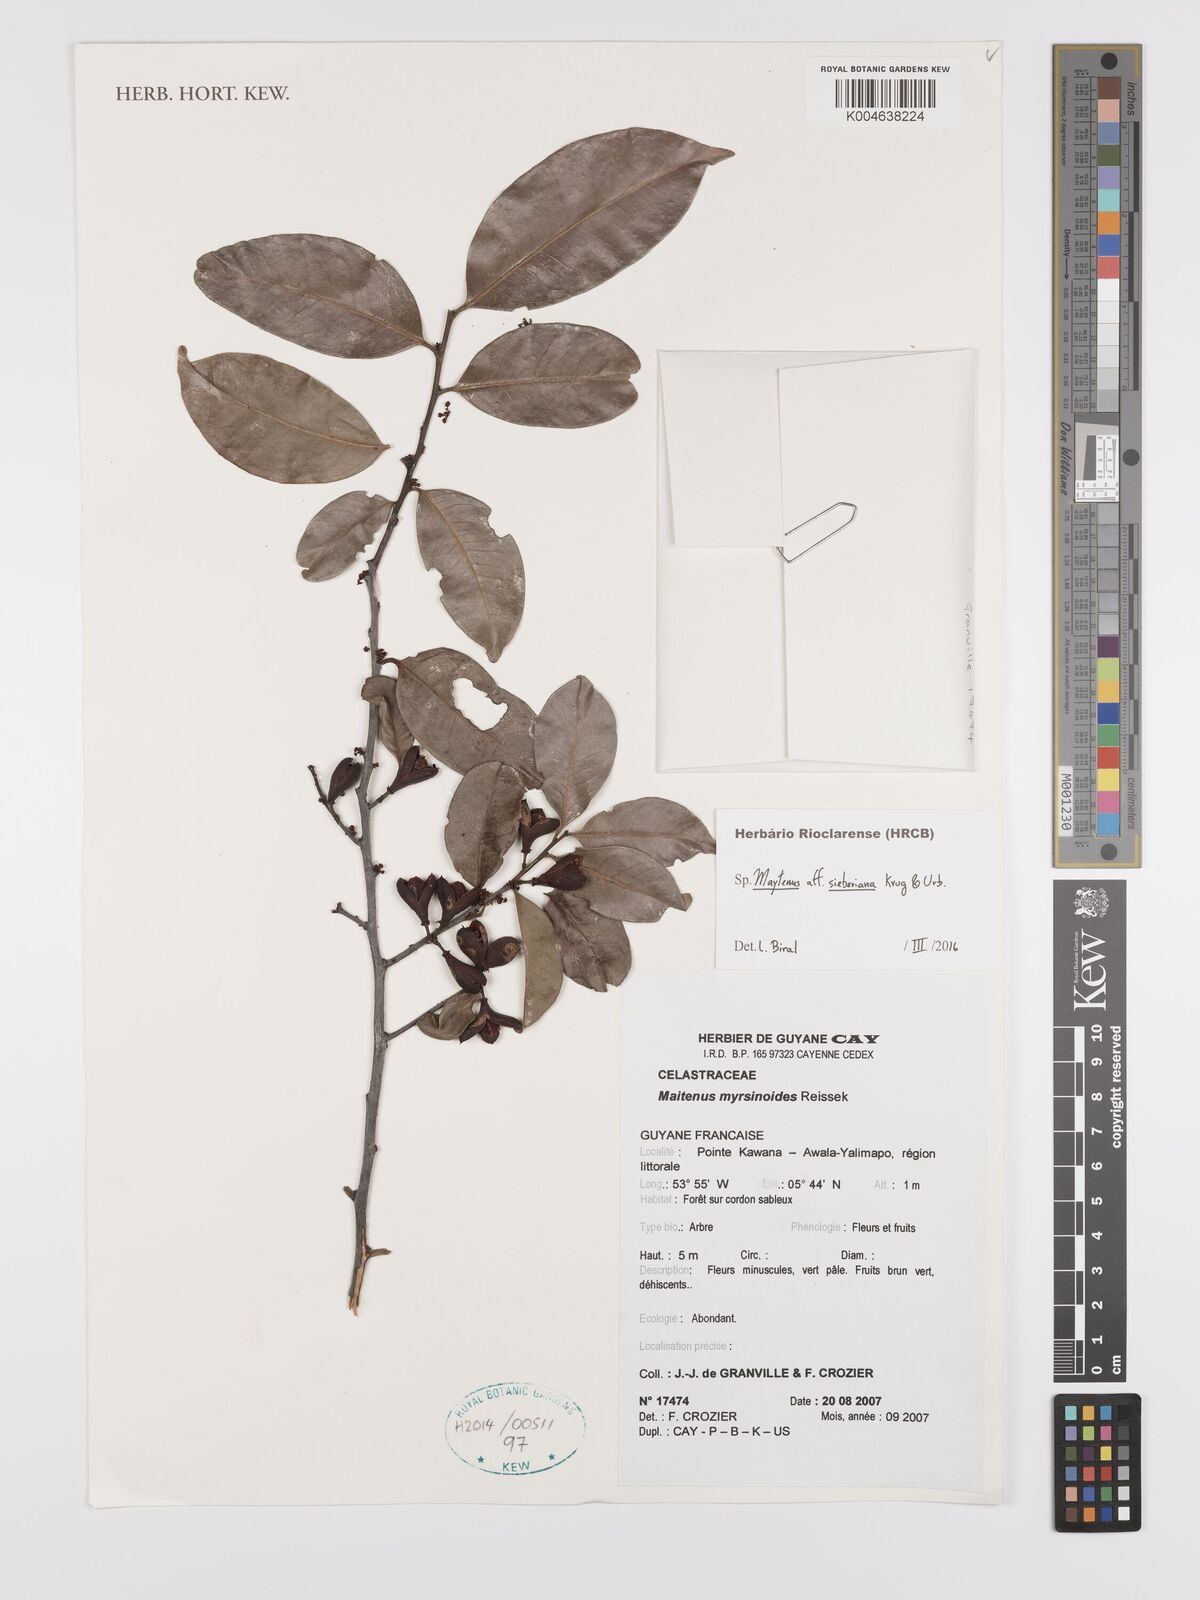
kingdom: Plantae
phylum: Tracheophyta
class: Magnoliopsida
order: Celastrales
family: Celastraceae
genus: Monteverdia
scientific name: Monteverdia sieberiana
